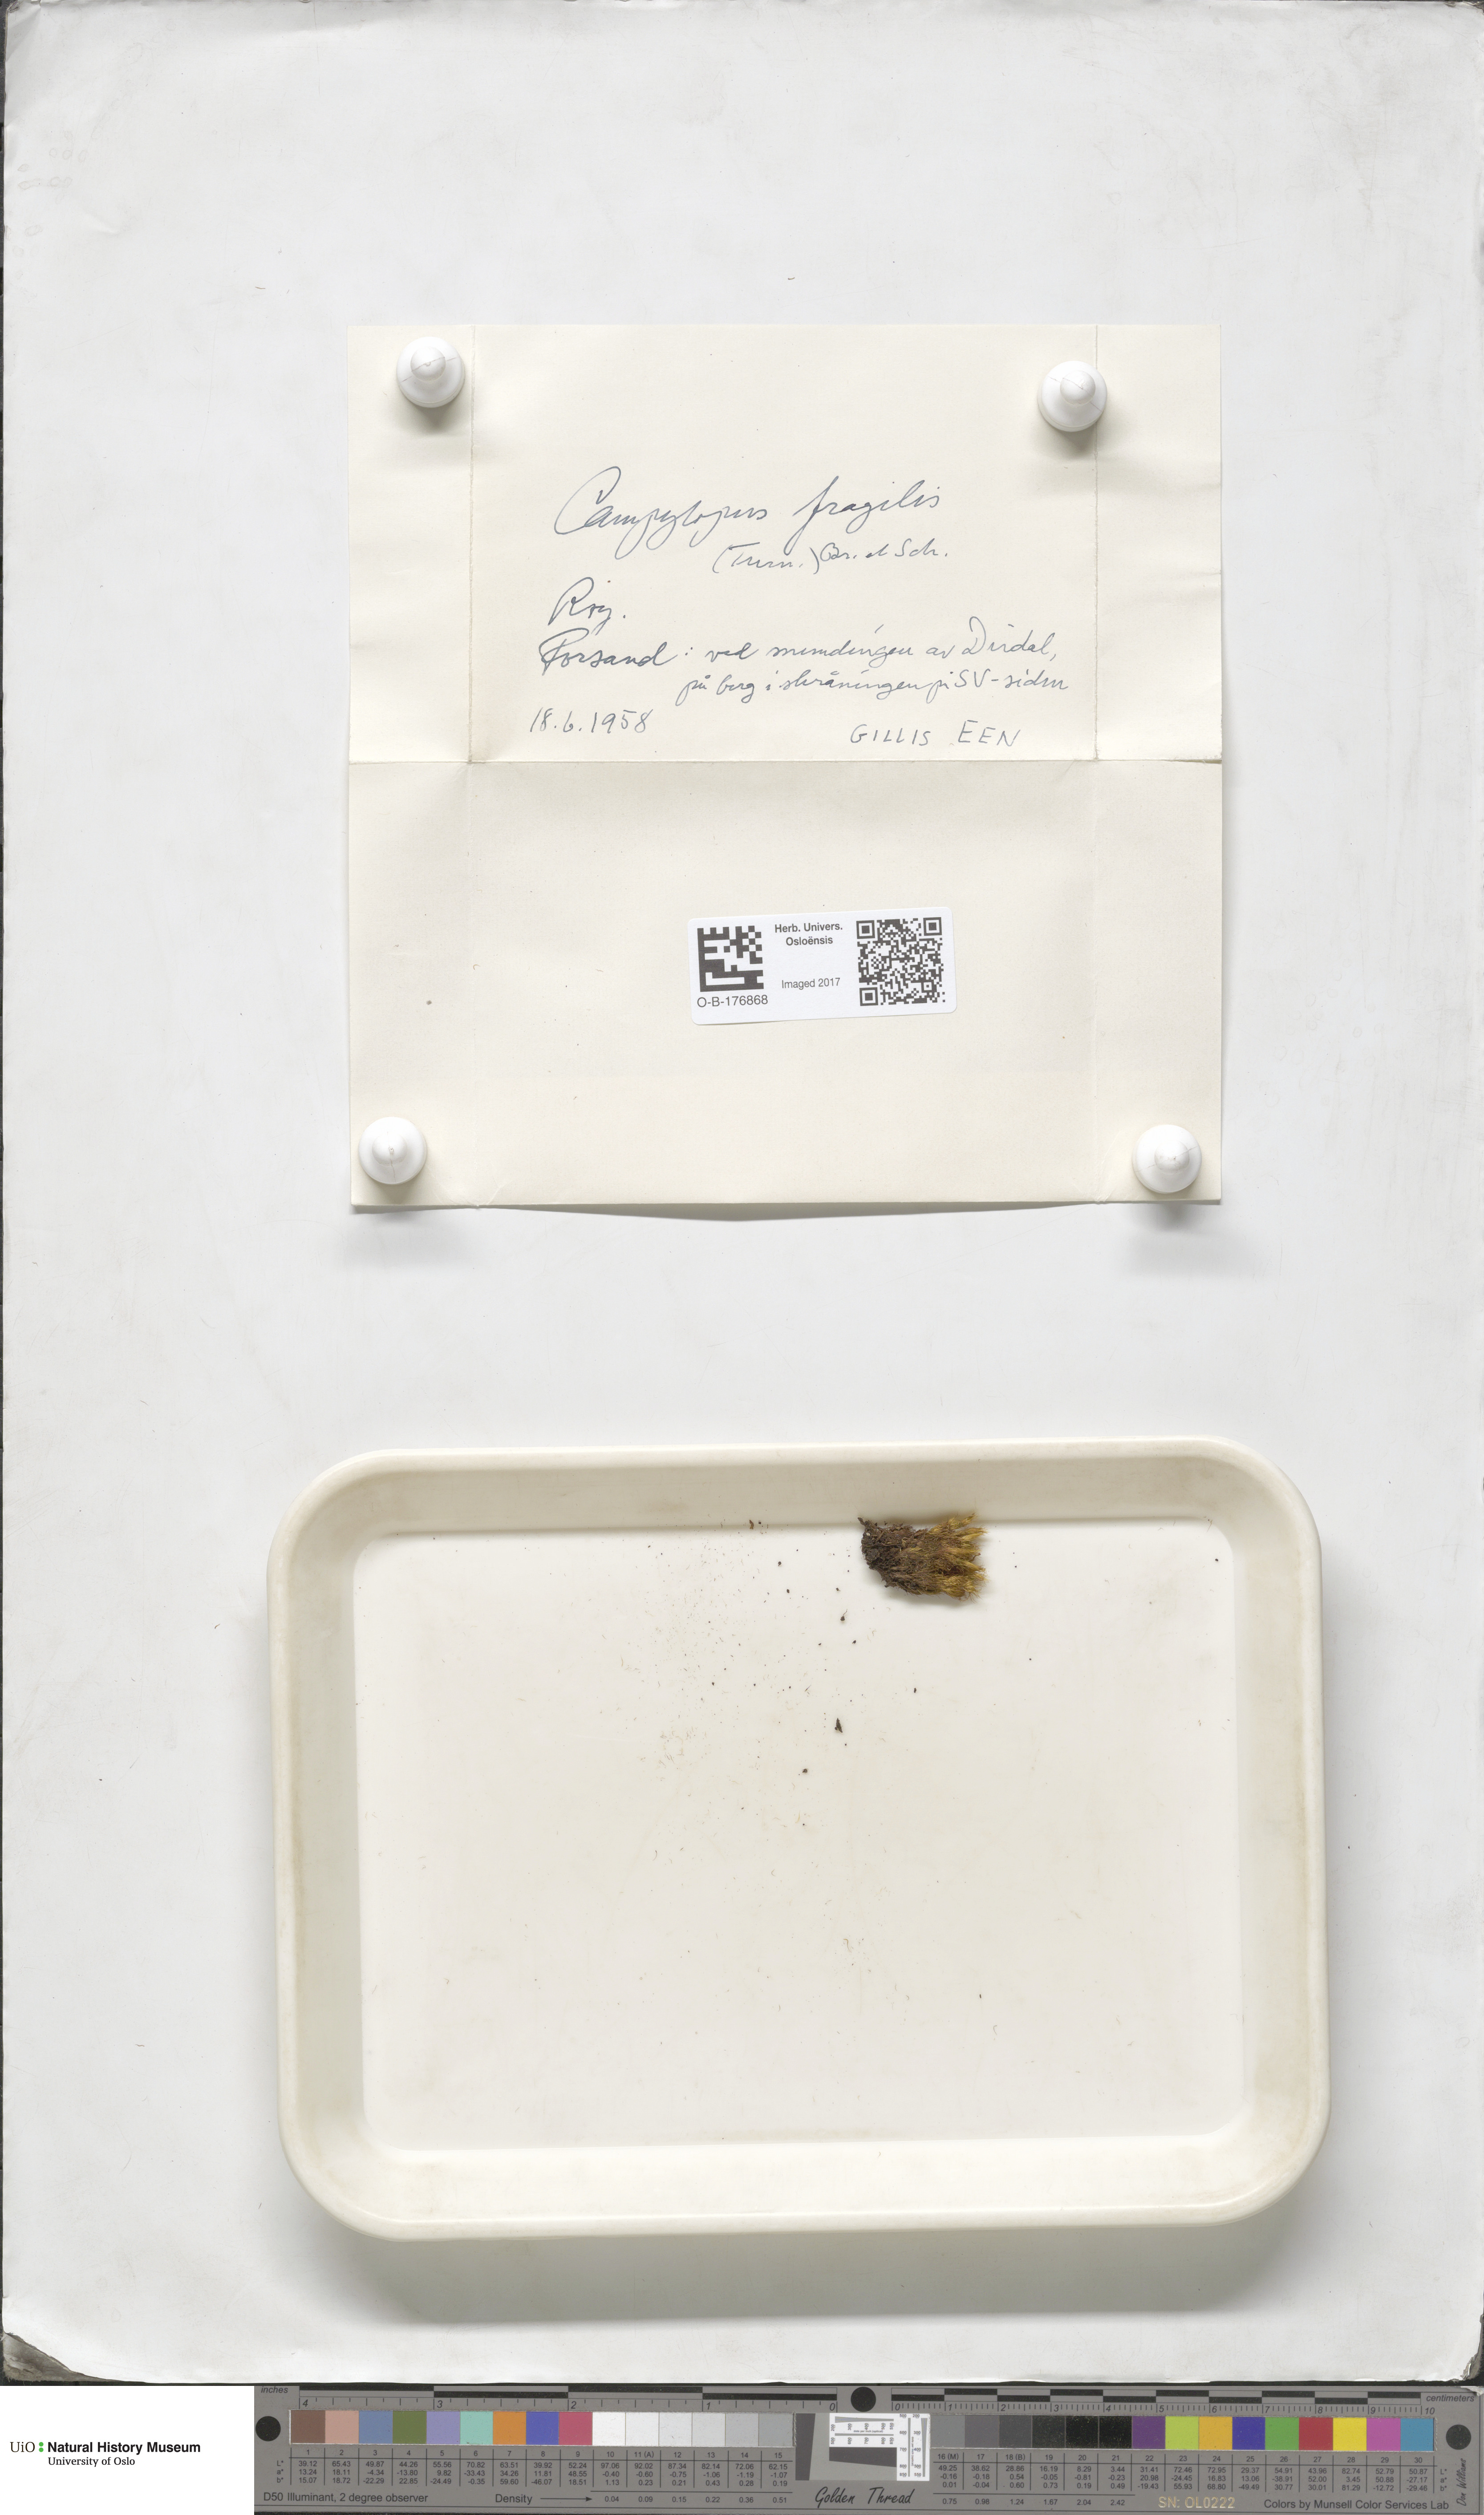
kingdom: Plantae
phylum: Bryophyta
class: Bryopsida
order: Dicranales
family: Leucobryaceae
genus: Campylopus
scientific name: Campylopus fragilis
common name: Brittle swan-neck moss
